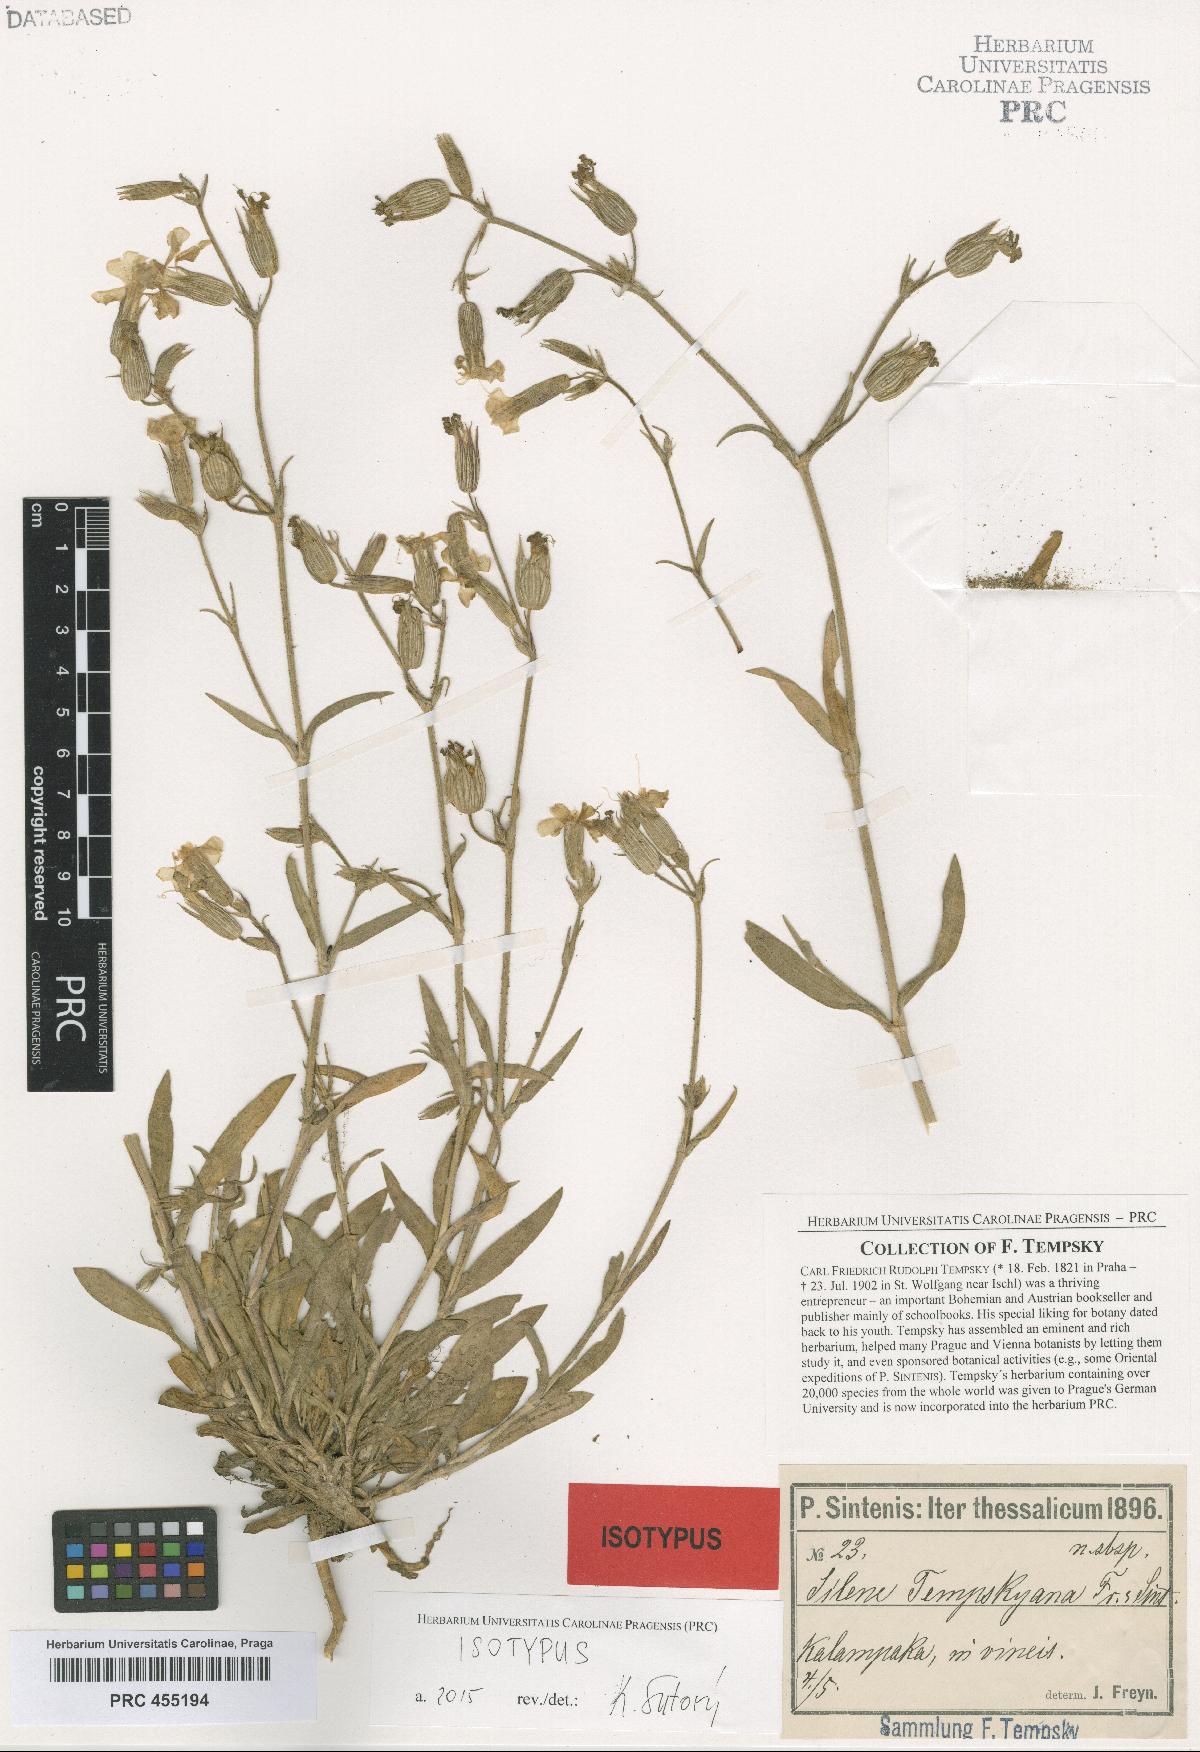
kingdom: Plantae
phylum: Tracheophyta
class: Magnoliopsida
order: Caryophyllales
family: Caryophyllaceae
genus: Silene
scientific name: Silene subconica
